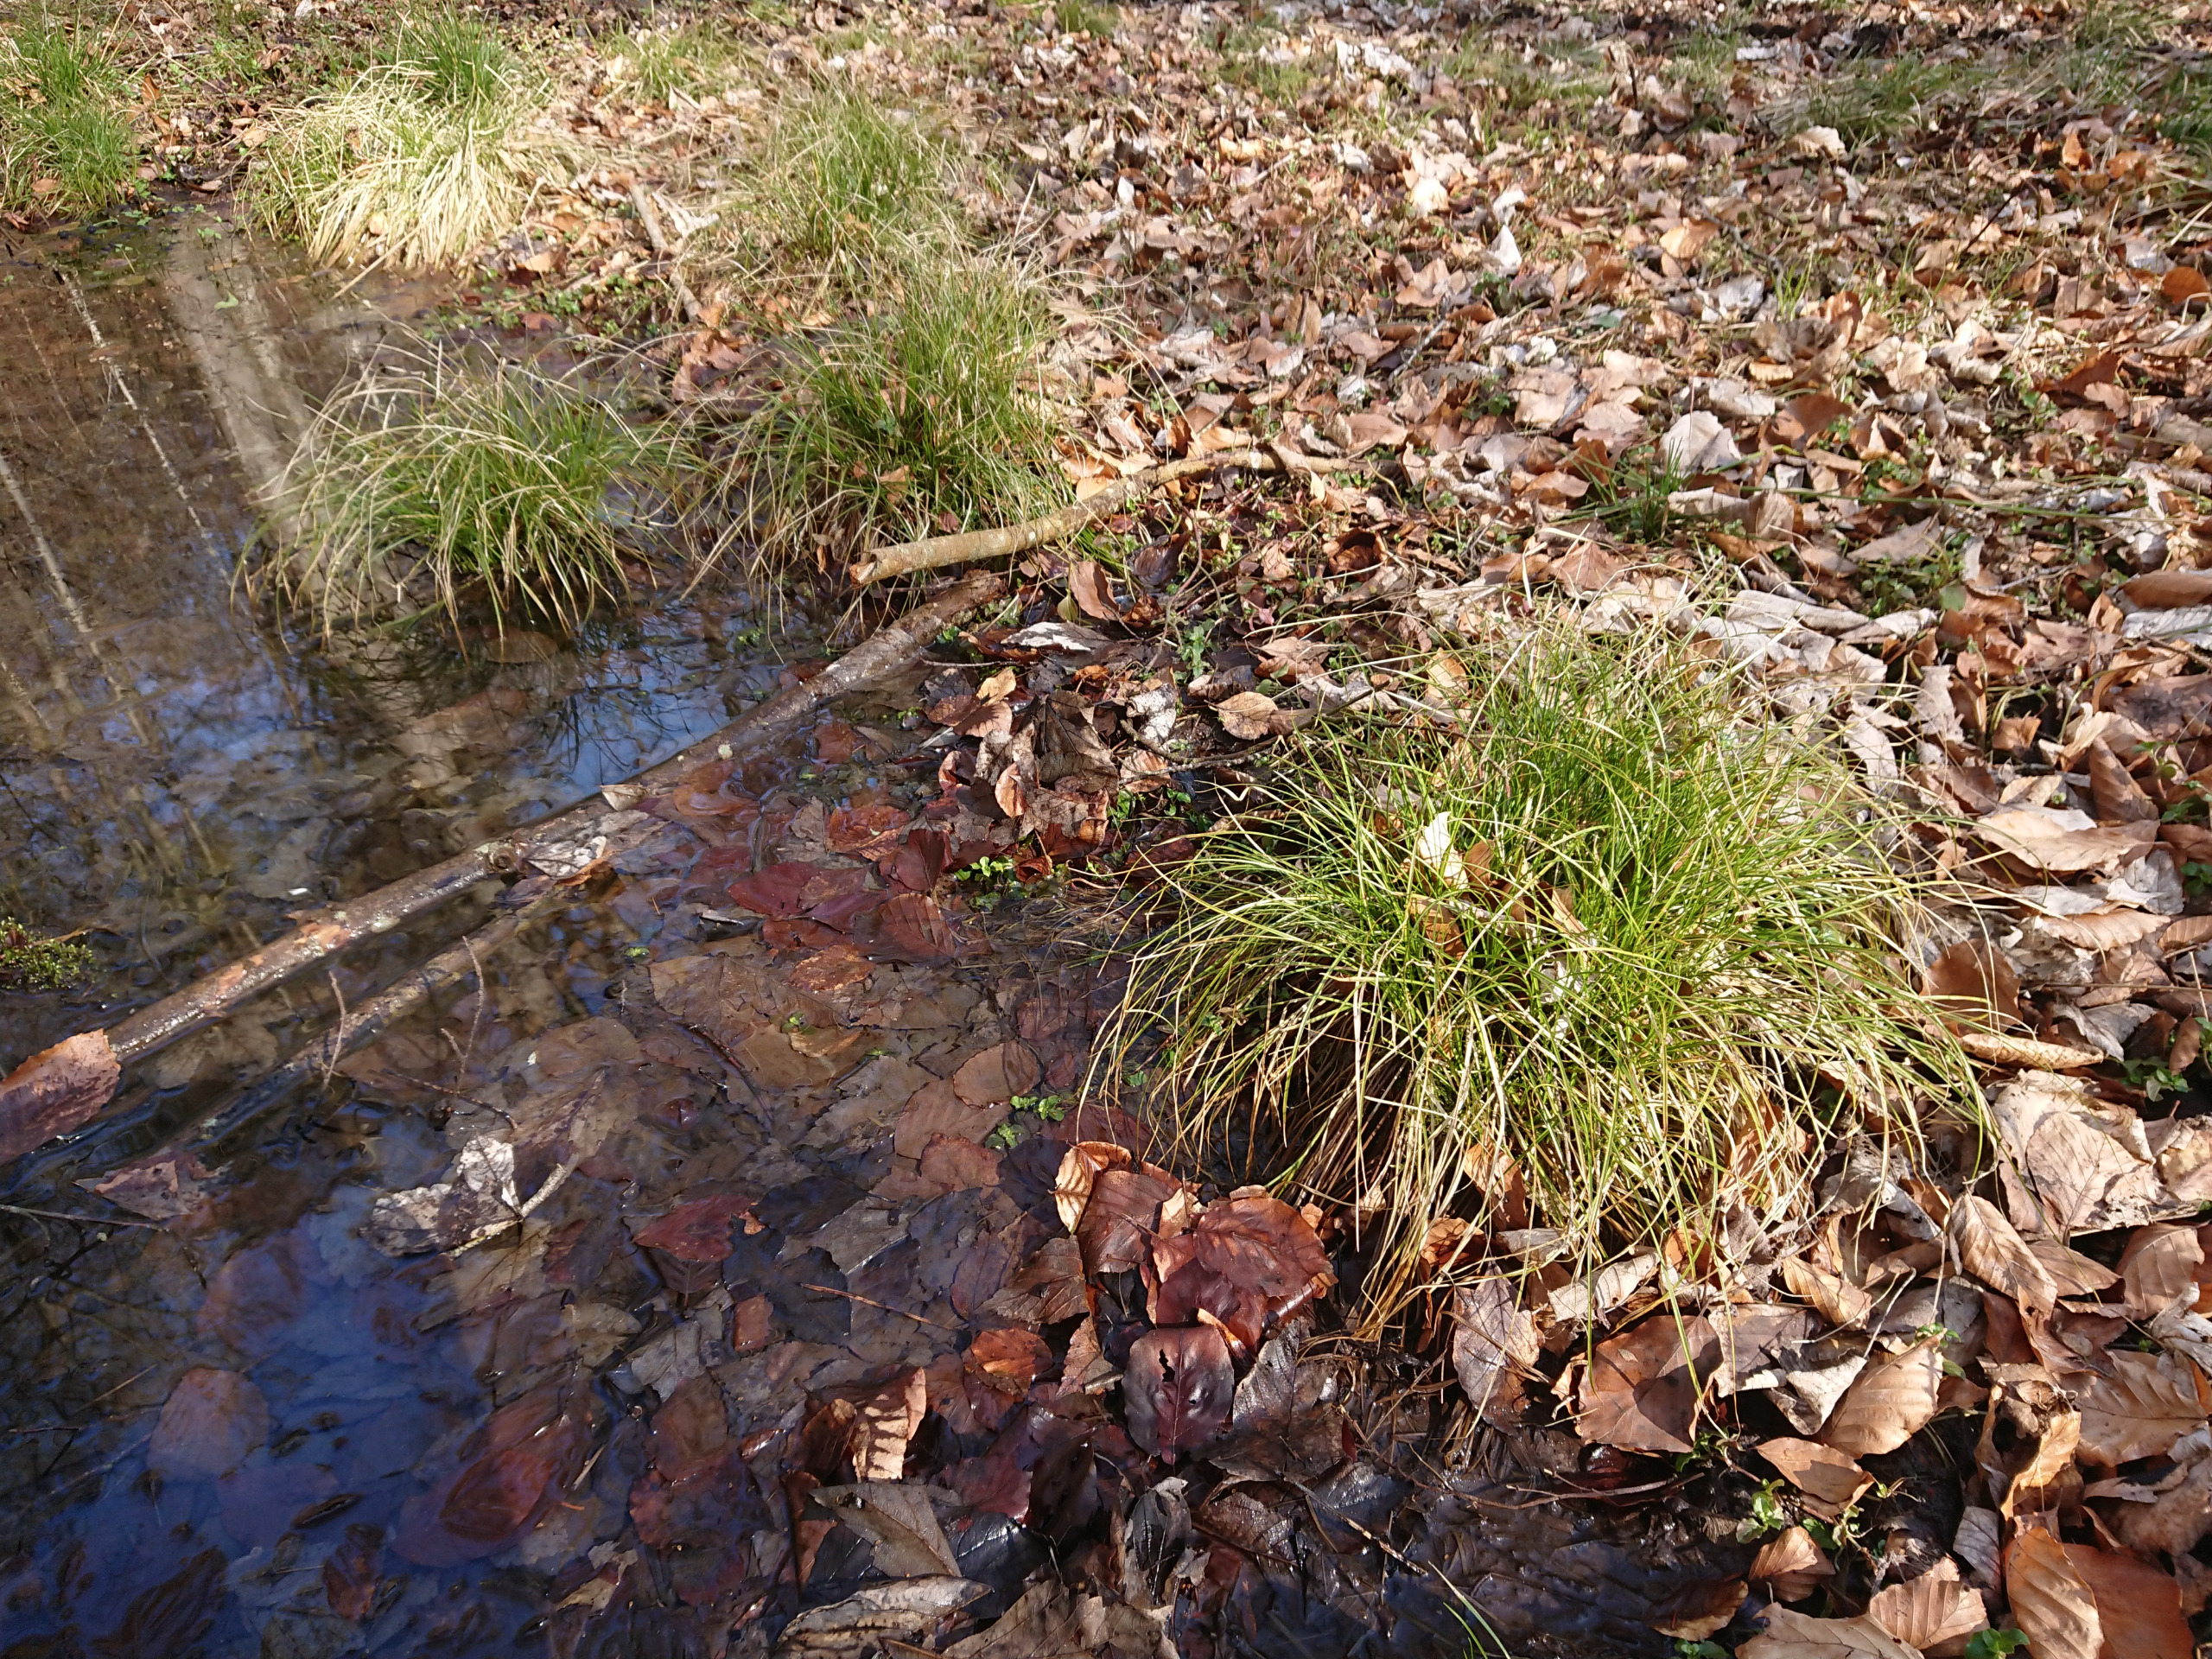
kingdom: Plantae
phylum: Tracheophyta
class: Liliopsida
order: Poales
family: Cyperaceae
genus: Carex
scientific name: Carex remota
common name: Akselblomstret star
